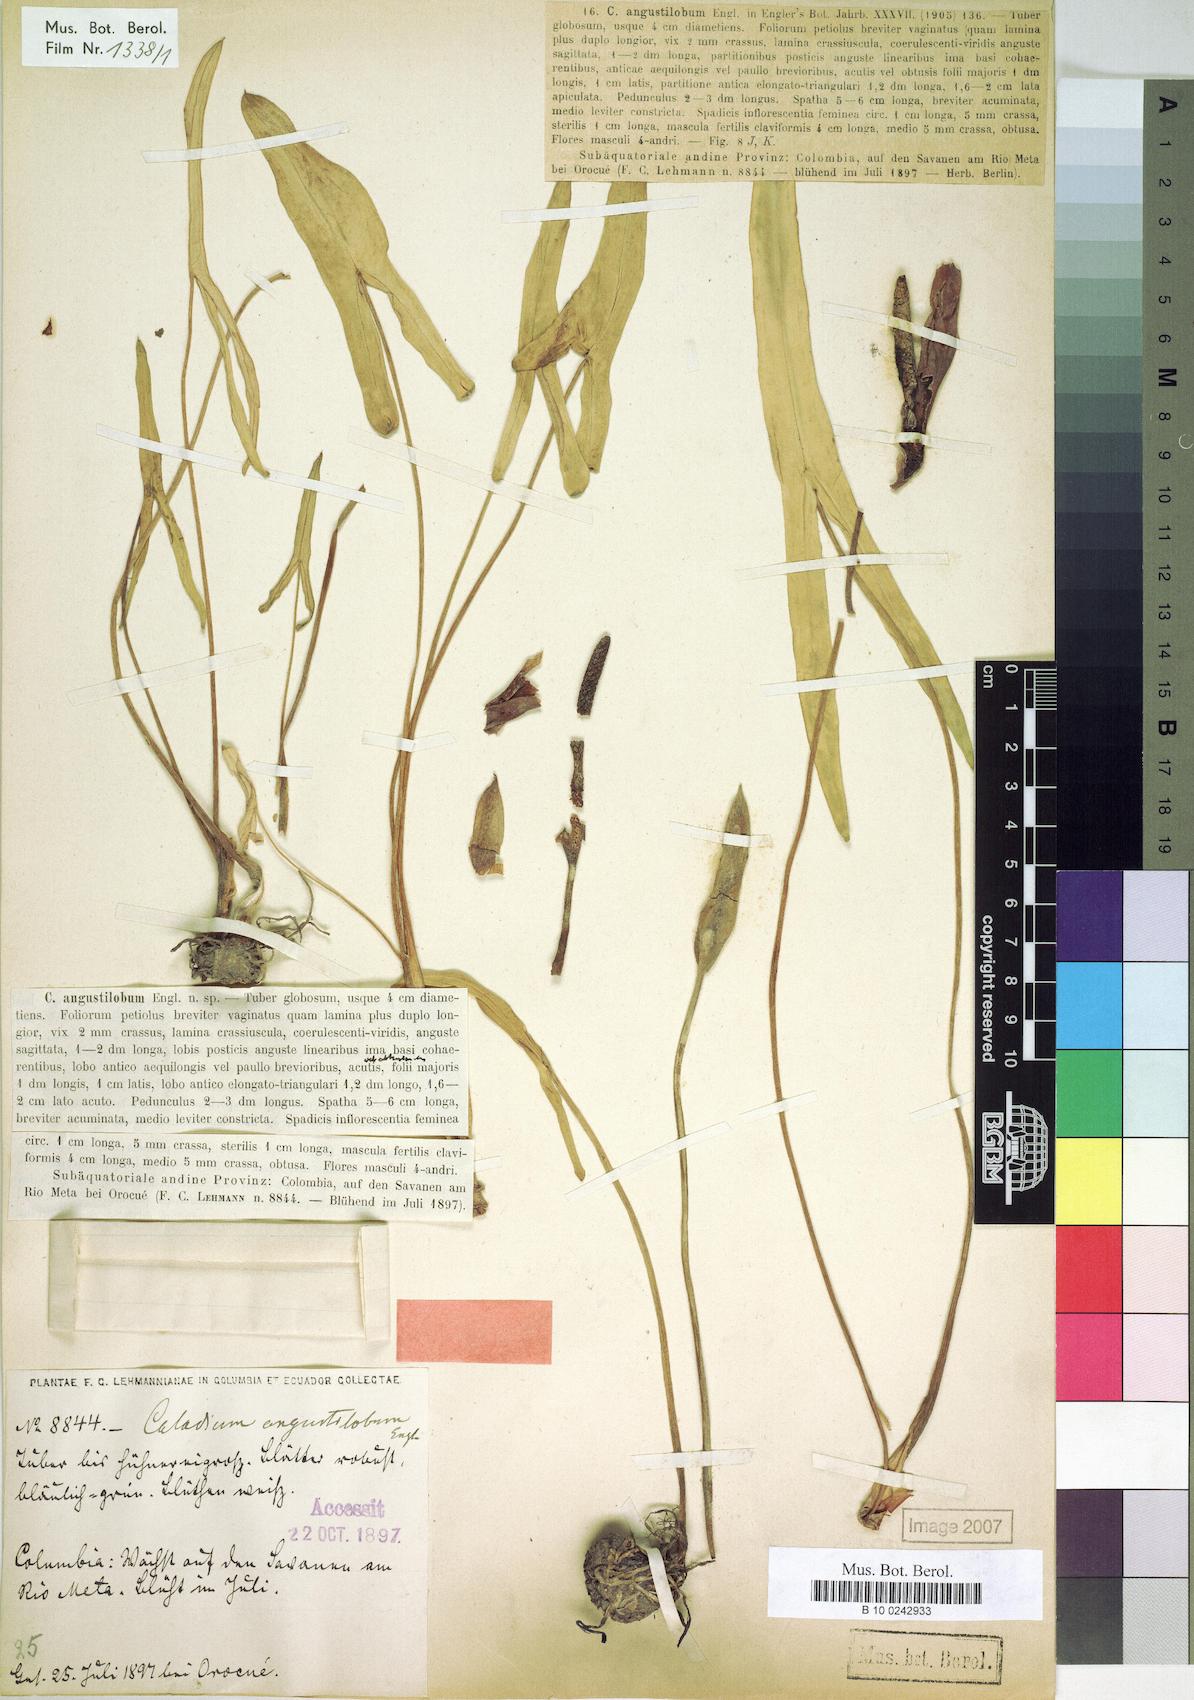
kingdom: Plantae
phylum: Tracheophyta
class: Liliopsida
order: Alismatales
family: Araceae
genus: Caladium
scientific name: Caladium macrotites
